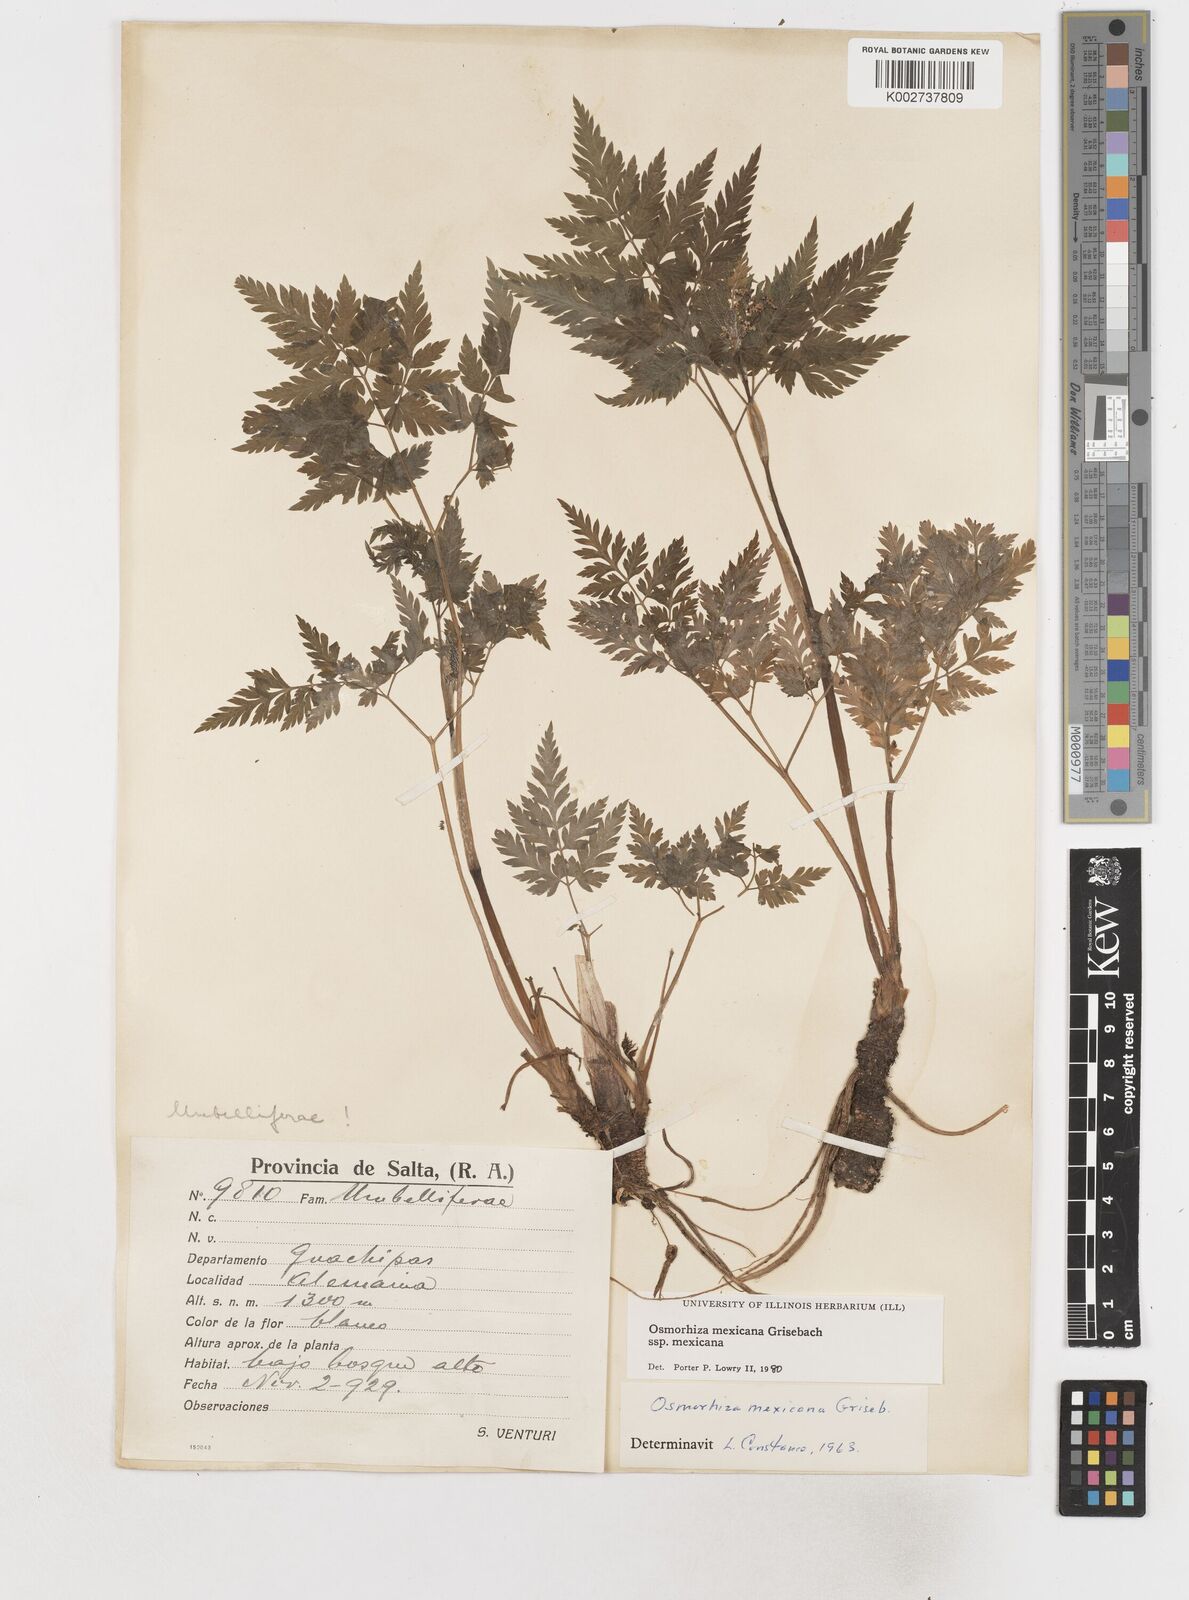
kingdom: Plantae
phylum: Tracheophyta
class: Magnoliopsida
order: Apiales
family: Apiaceae
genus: Osmorhiza
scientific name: Osmorhiza mexicana
